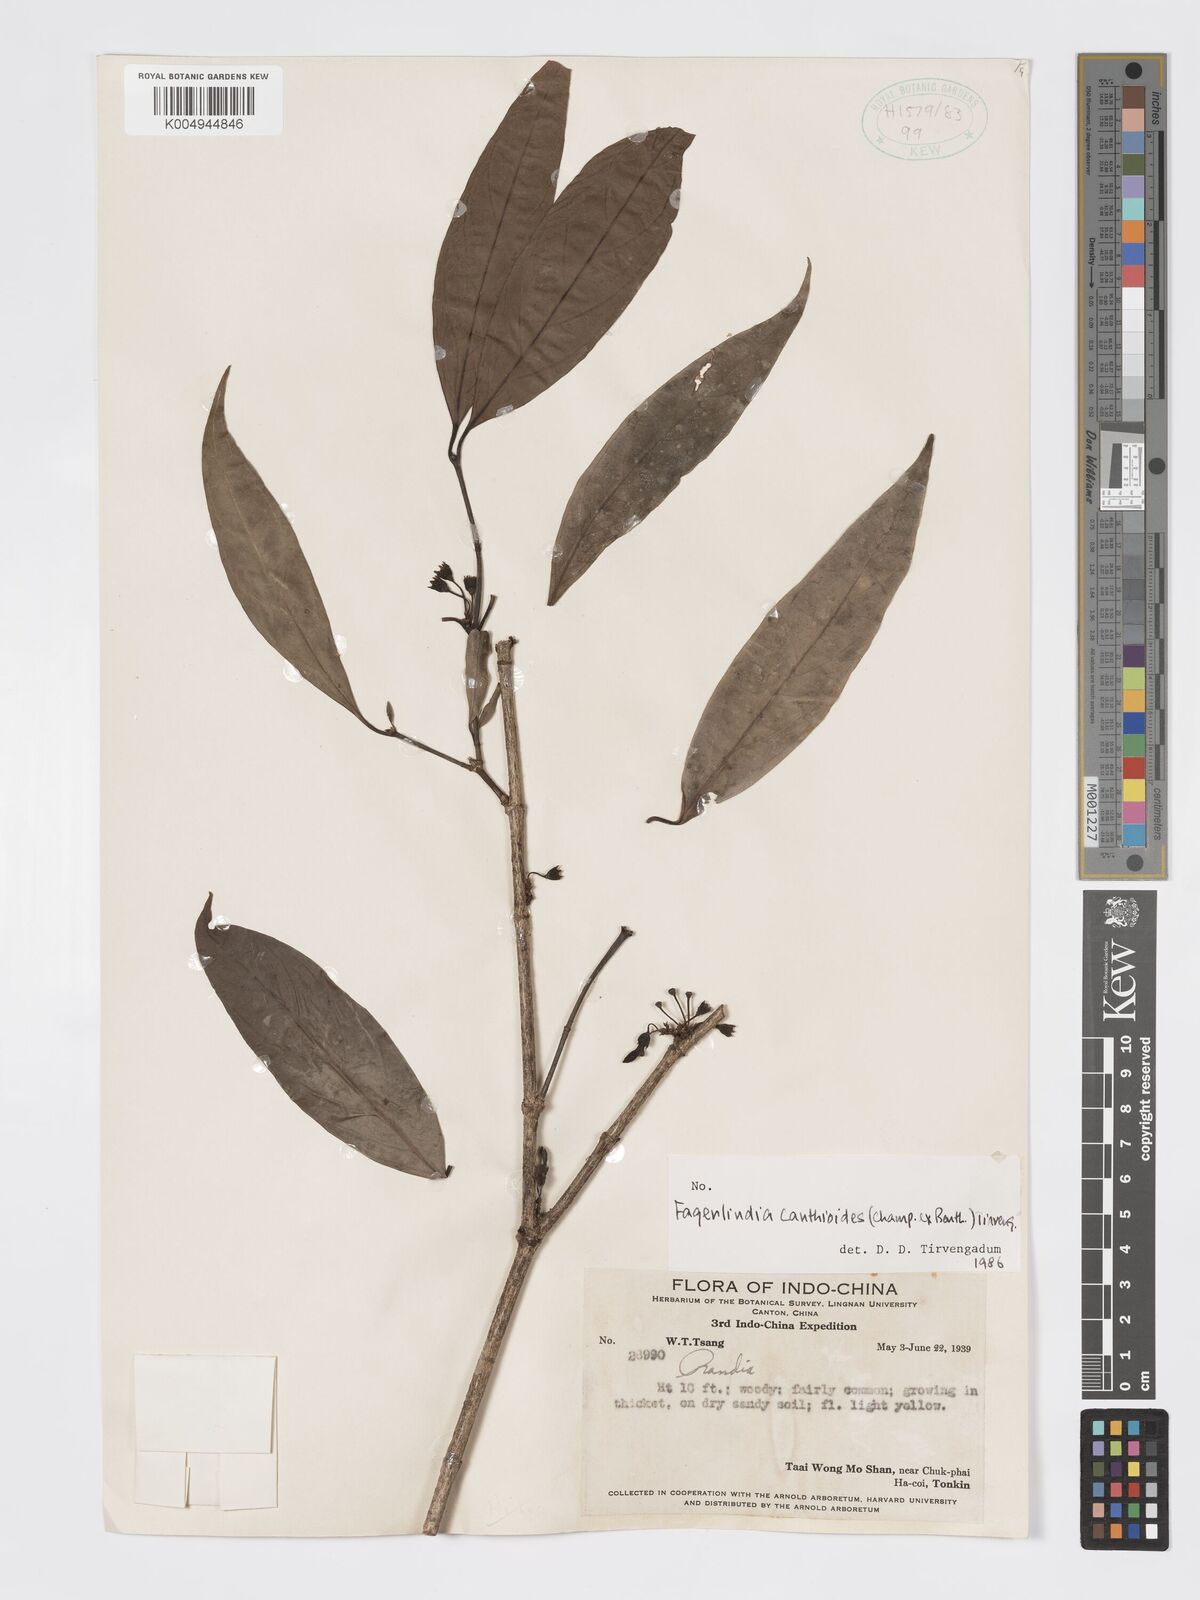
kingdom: Plantae
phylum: Tracheophyta
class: Magnoliopsida
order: Gentianales
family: Rubiaceae
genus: Aidia
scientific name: Aidia canthioides
